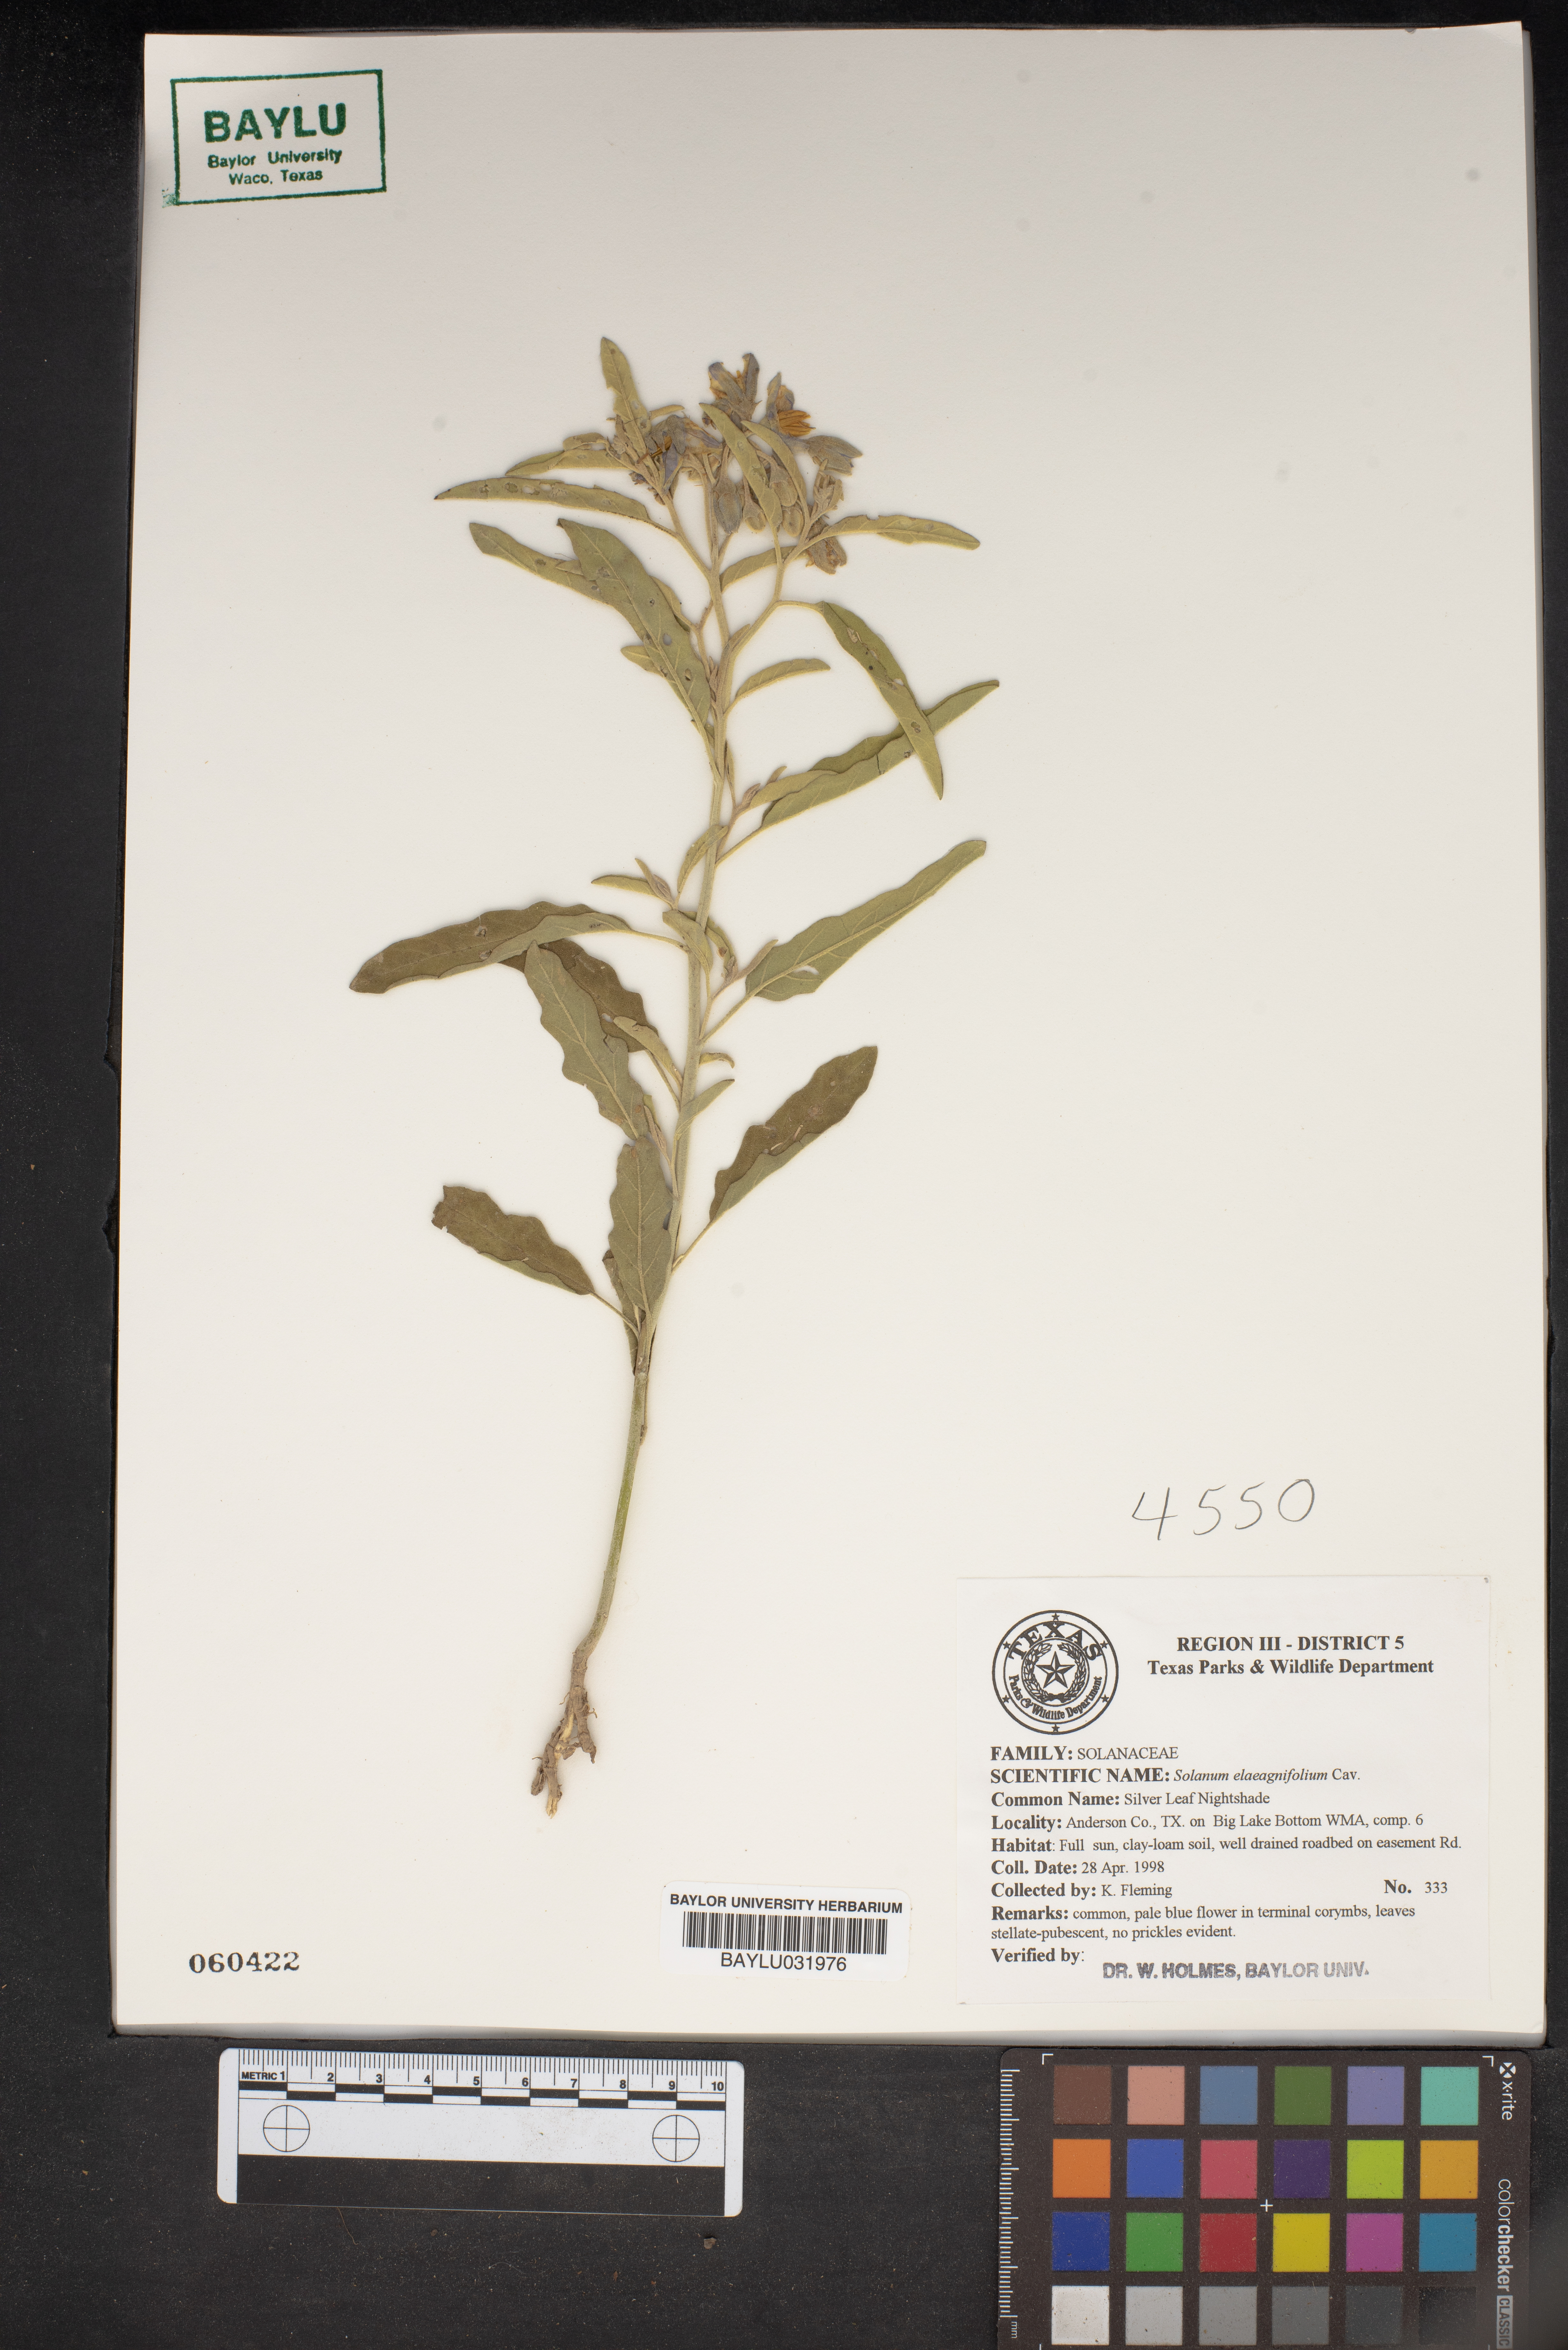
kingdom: Plantae
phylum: Tracheophyta
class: Magnoliopsida
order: Solanales
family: Solanaceae
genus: Solanum
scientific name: Solanum elaeagnifolium
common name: Silverleaf nightshade
